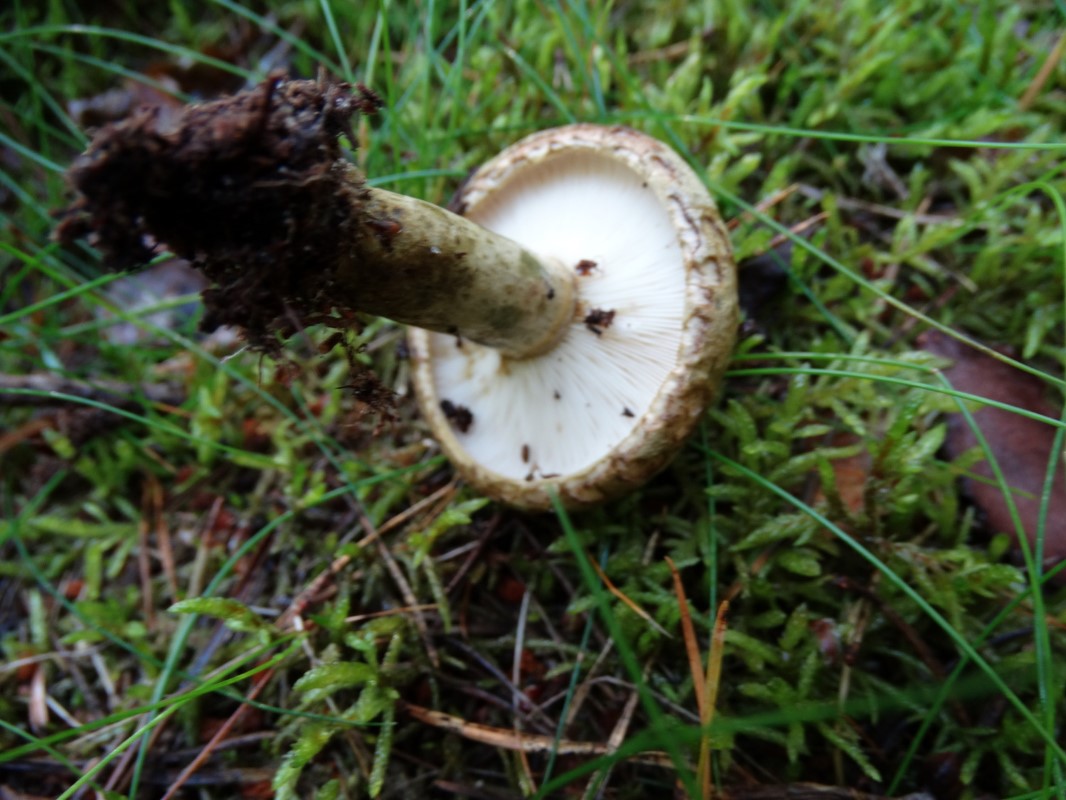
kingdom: Fungi
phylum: Basidiomycota
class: Agaricomycetes
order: Russulales
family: Russulaceae
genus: Lactarius
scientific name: Lactarius necator
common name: manddraber-mælkehat
